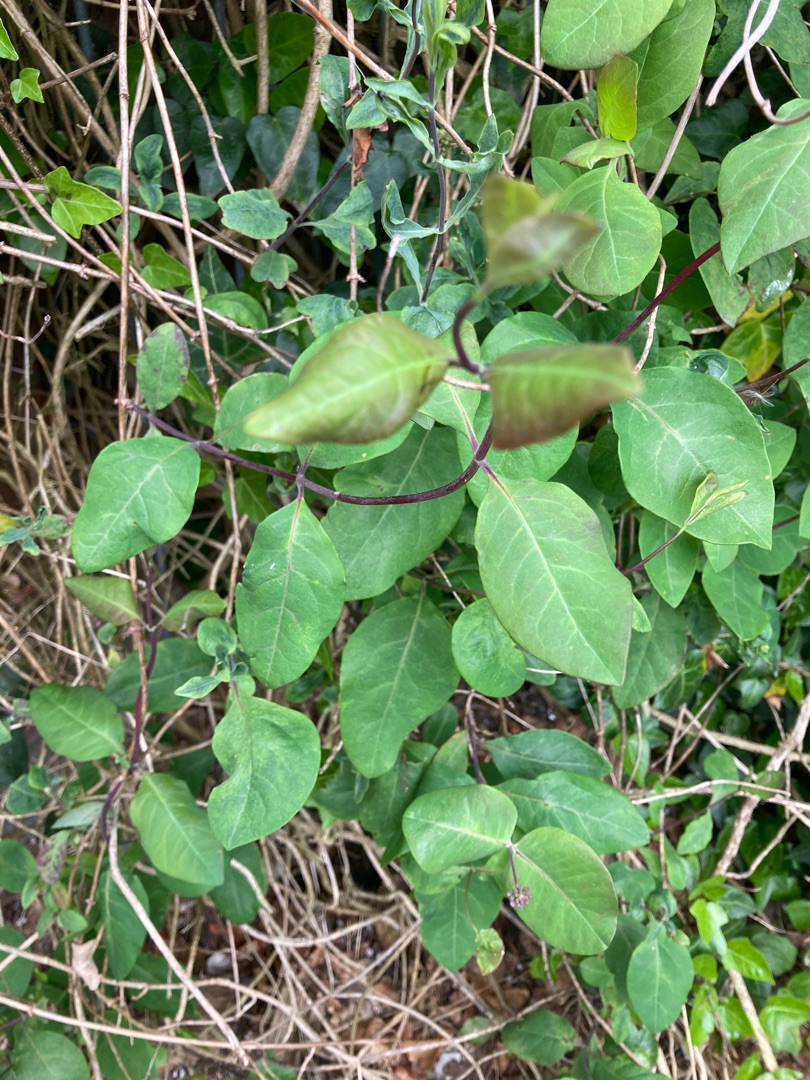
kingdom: Plantae
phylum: Tracheophyta
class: Magnoliopsida
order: Dipsacales
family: Caprifoliaceae
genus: Lonicera
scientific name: Lonicera periclymenum
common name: Almindelig gedeblad
